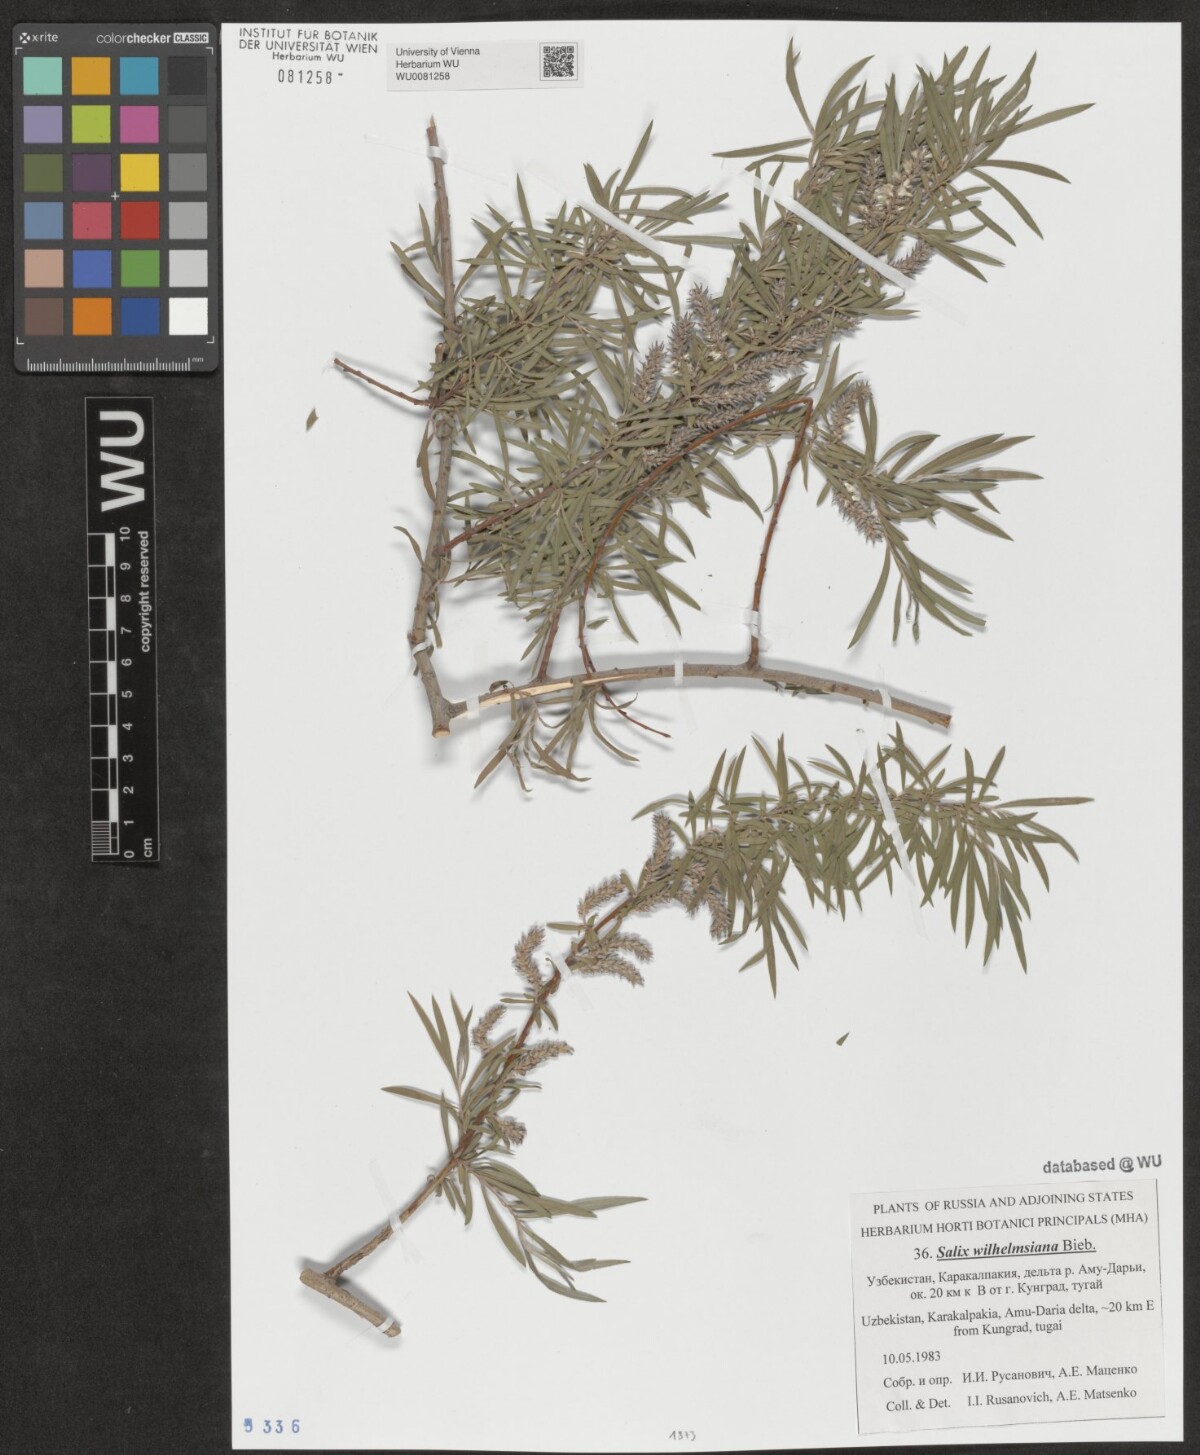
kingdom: Plantae
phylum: Tracheophyta
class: Magnoliopsida
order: Malpighiales
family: Salicaceae
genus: Salix
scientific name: Salix wilhelmsiana
